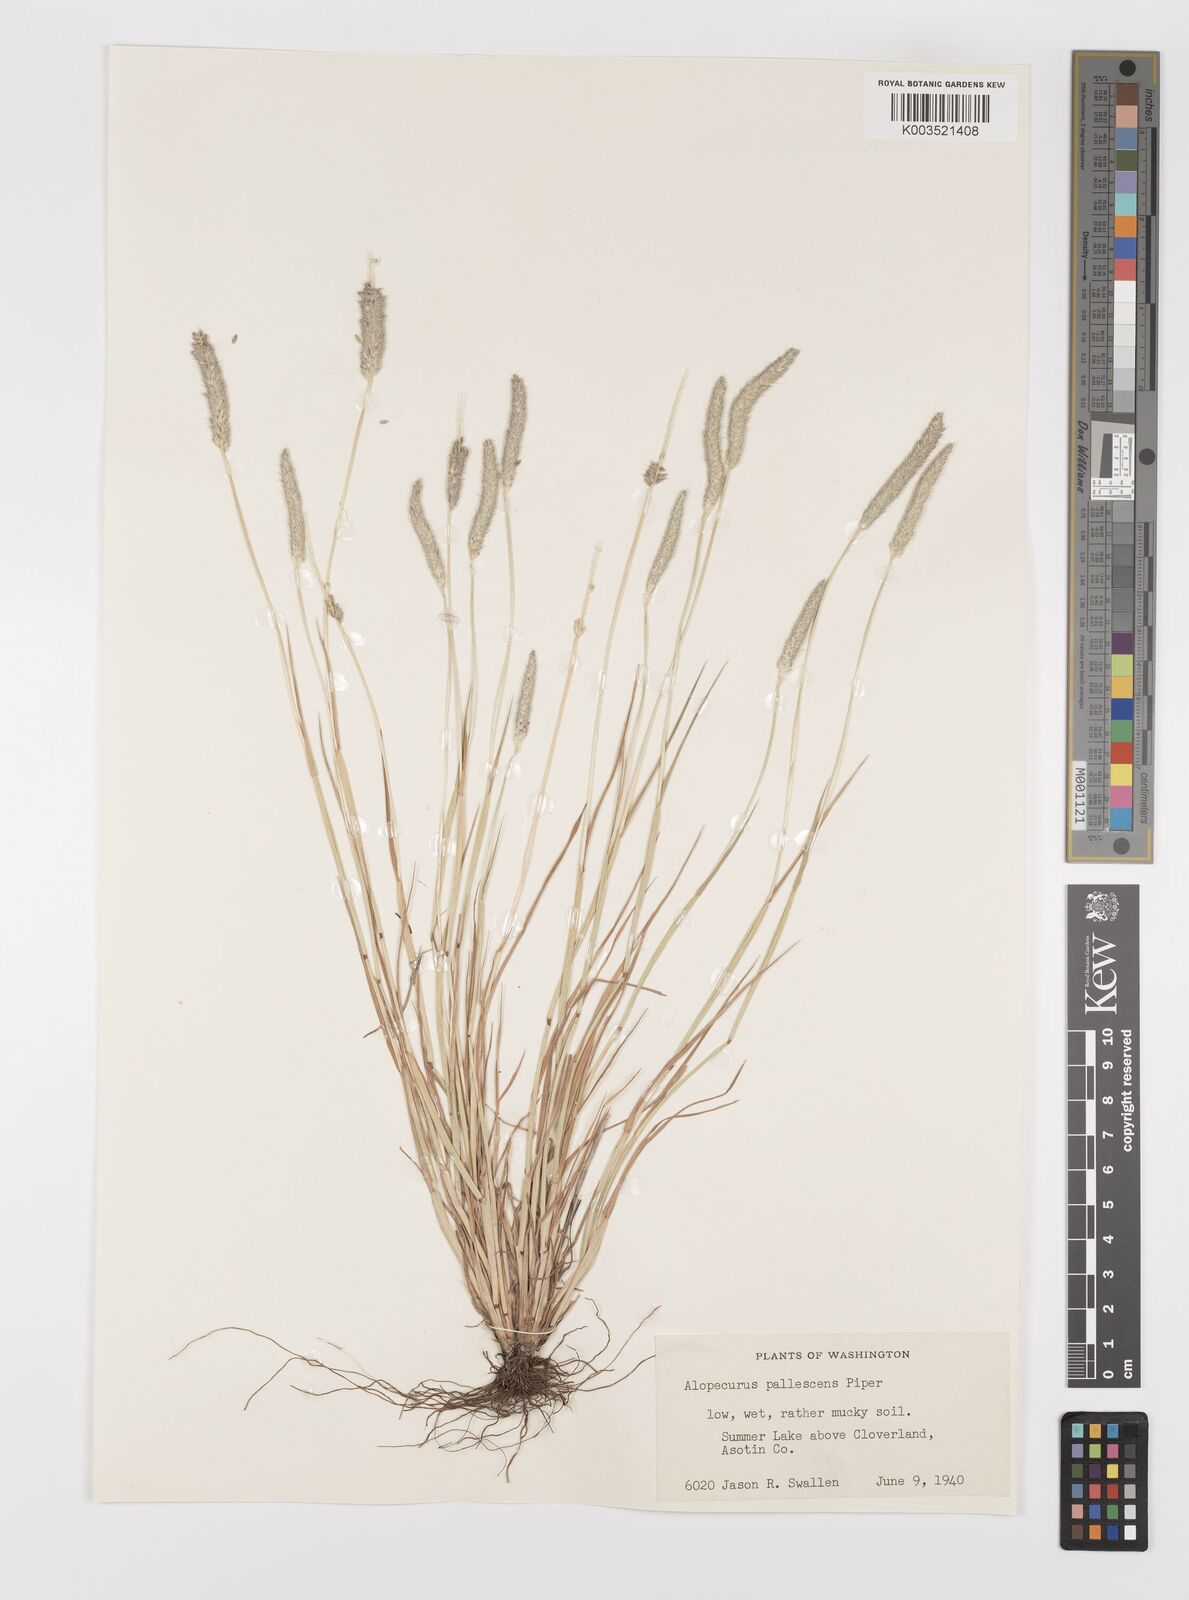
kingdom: Plantae
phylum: Tracheophyta
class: Liliopsida
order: Poales
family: Poaceae
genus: Alopecurus
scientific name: Alopecurus geniculatus
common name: Water foxtail
